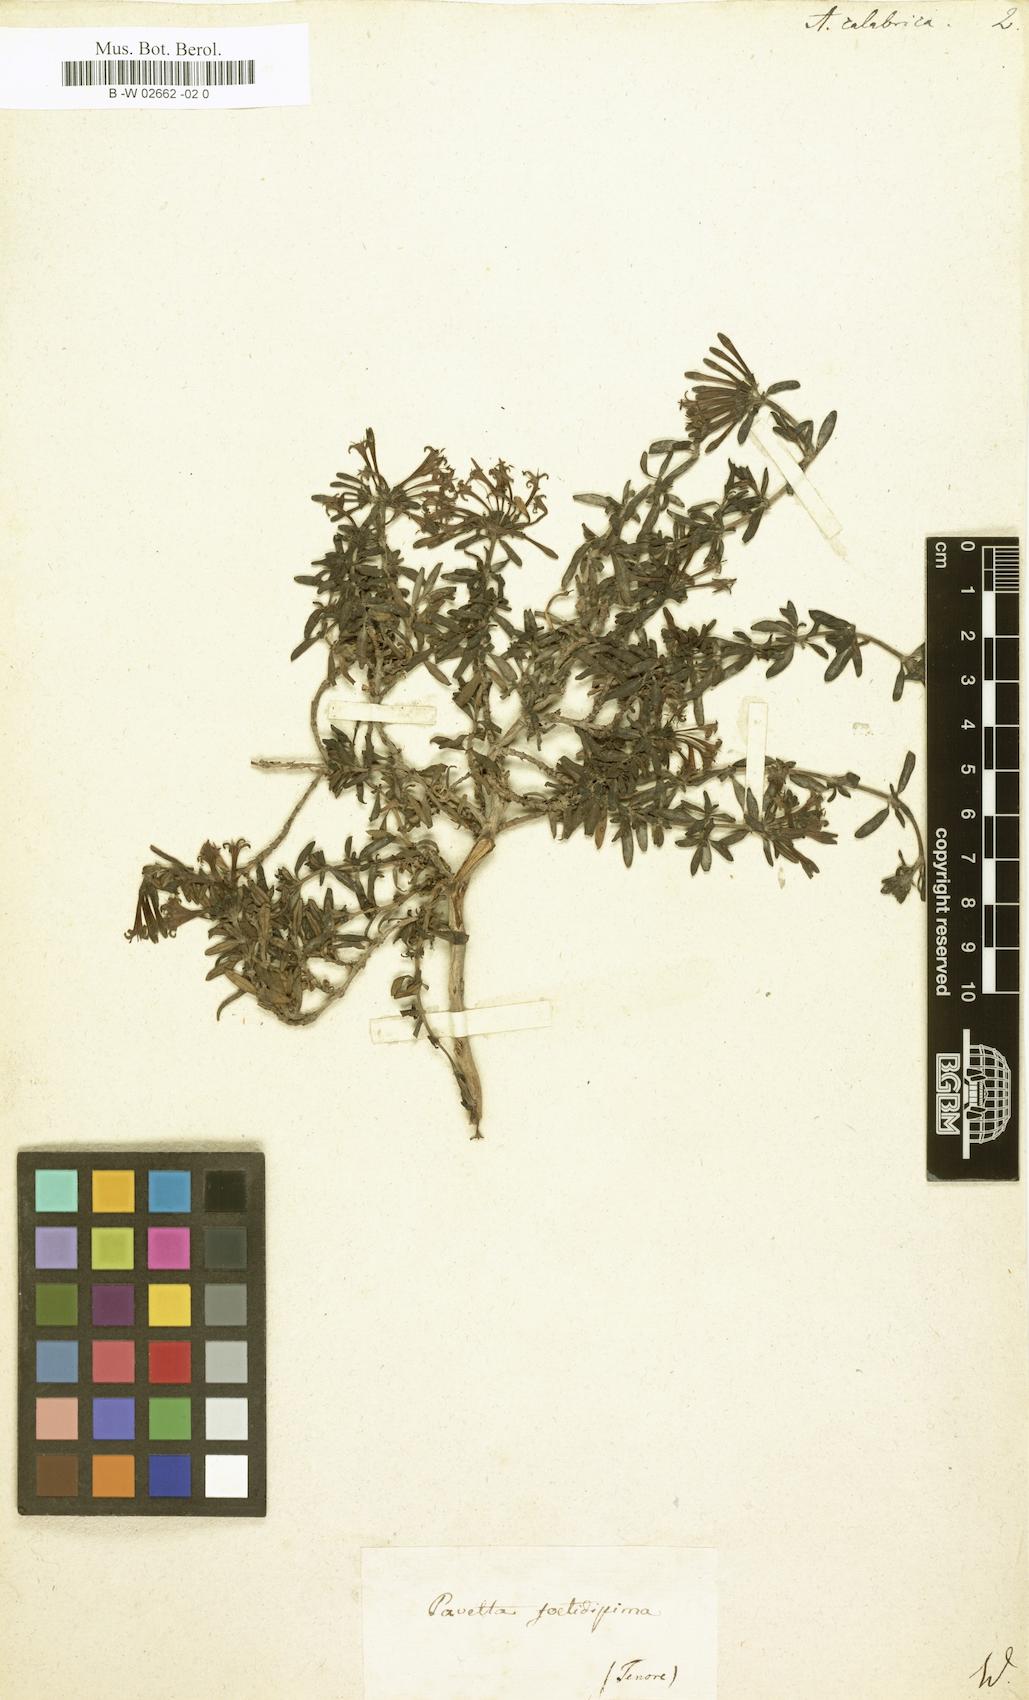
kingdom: Plantae
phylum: Tracheophyta
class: Magnoliopsida
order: Gentianales
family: Rubiaceae
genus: Plocama
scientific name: Plocama calabrica
